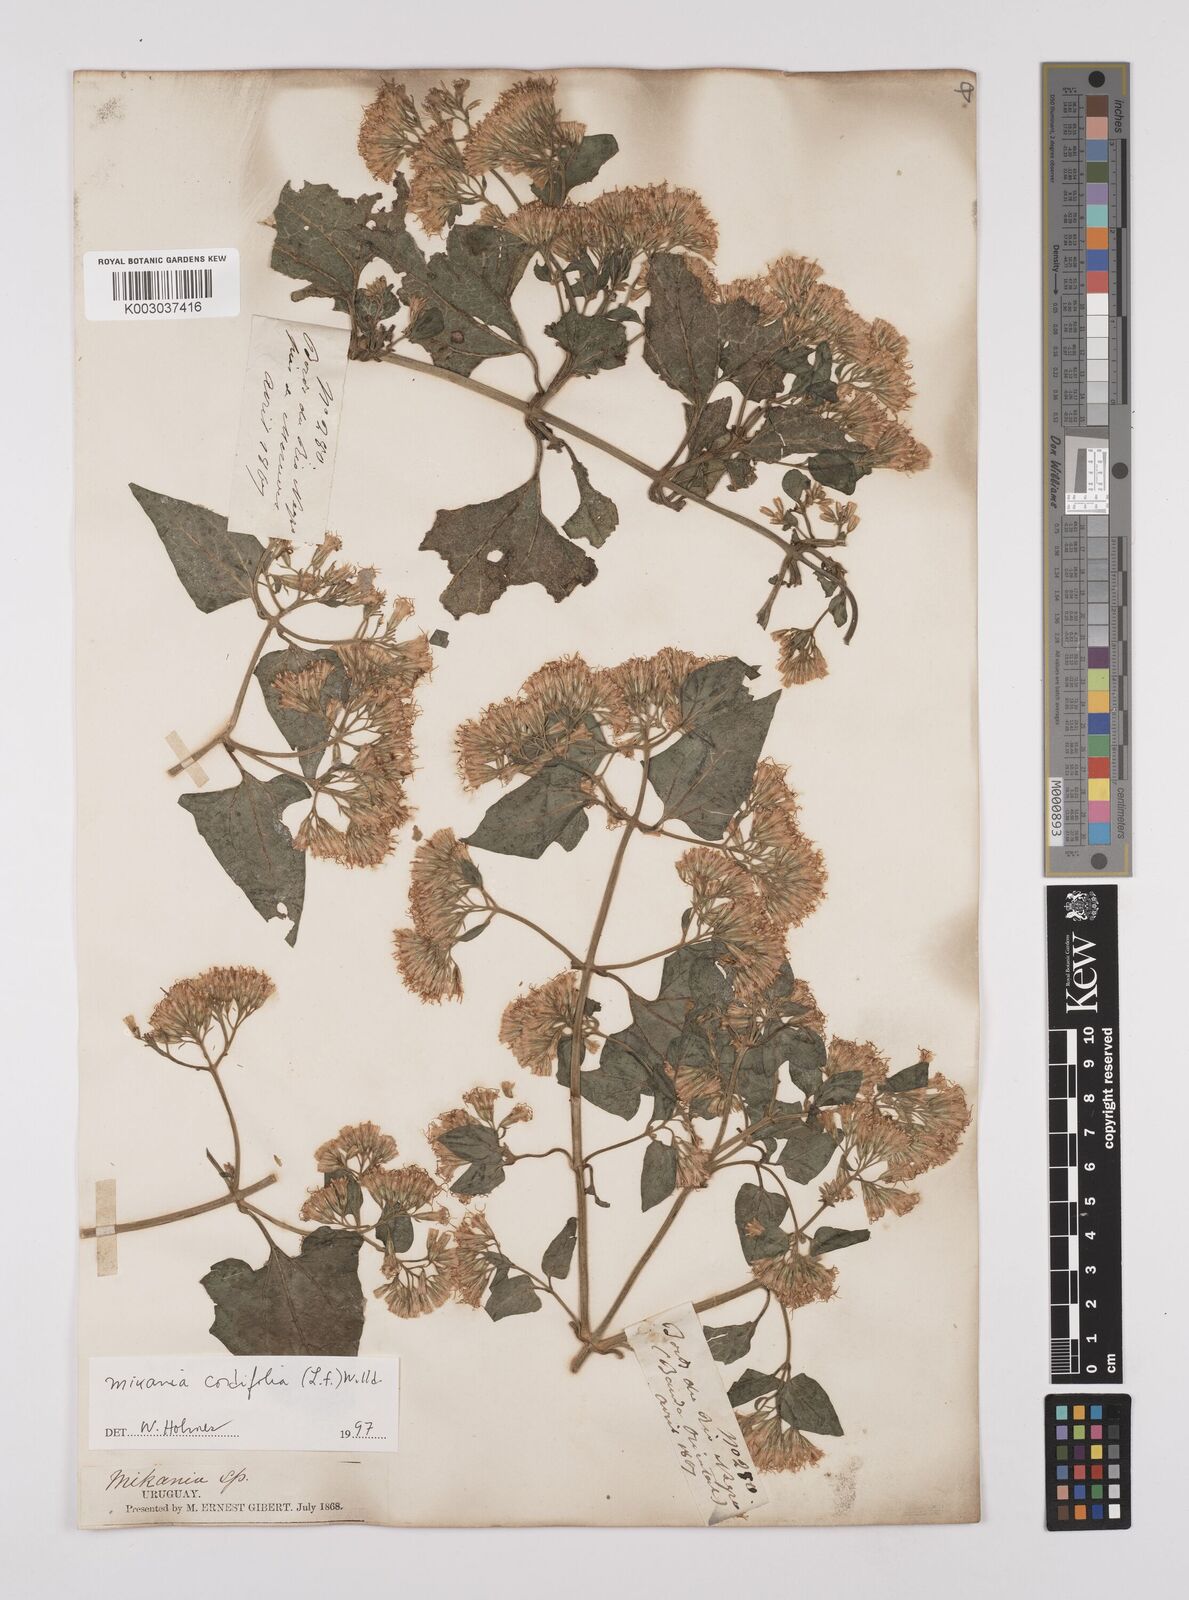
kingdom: Plantae
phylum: Tracheophyta
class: Magnoliopsida
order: Asterales
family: Asteraceae
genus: Mikania
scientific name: Mikania cordifolia
